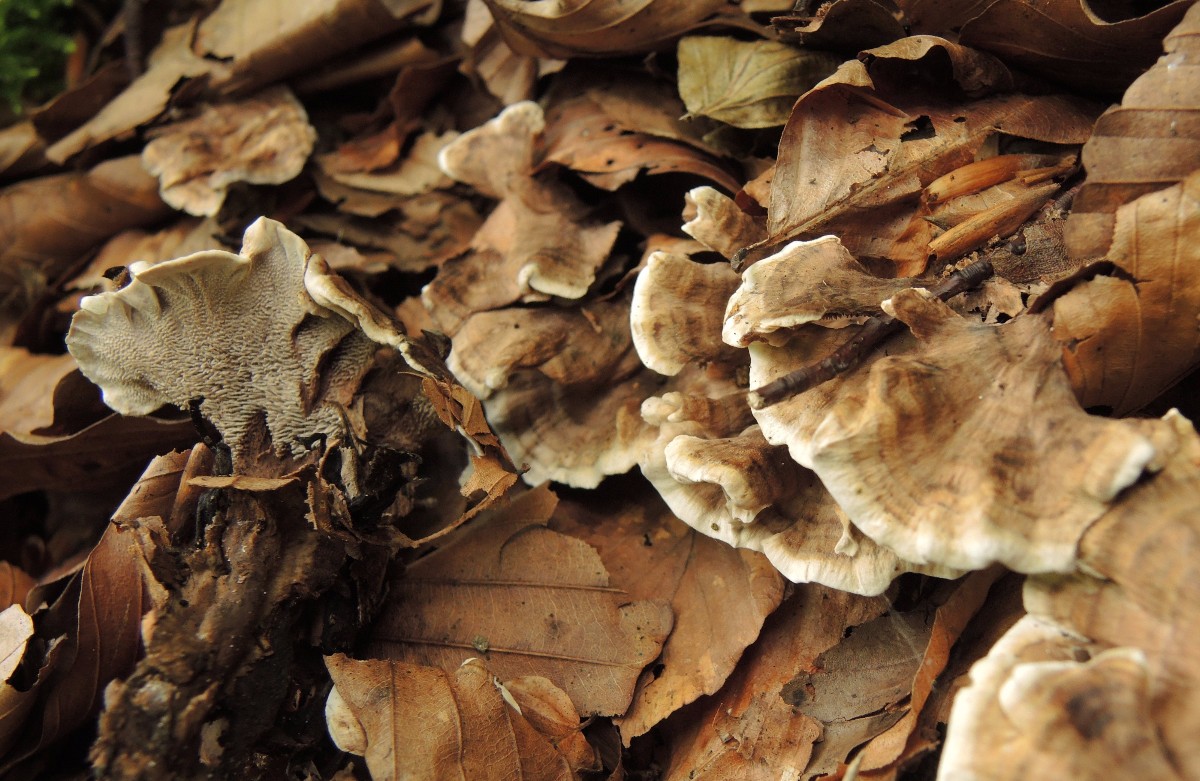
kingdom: Fungi
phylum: Basidiomycota
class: Agaricomycetes
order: Thelephorales
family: Thelephoraceae
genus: Phellodon
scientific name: Phellodon confluens
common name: pjaltet duftpigsvamp
